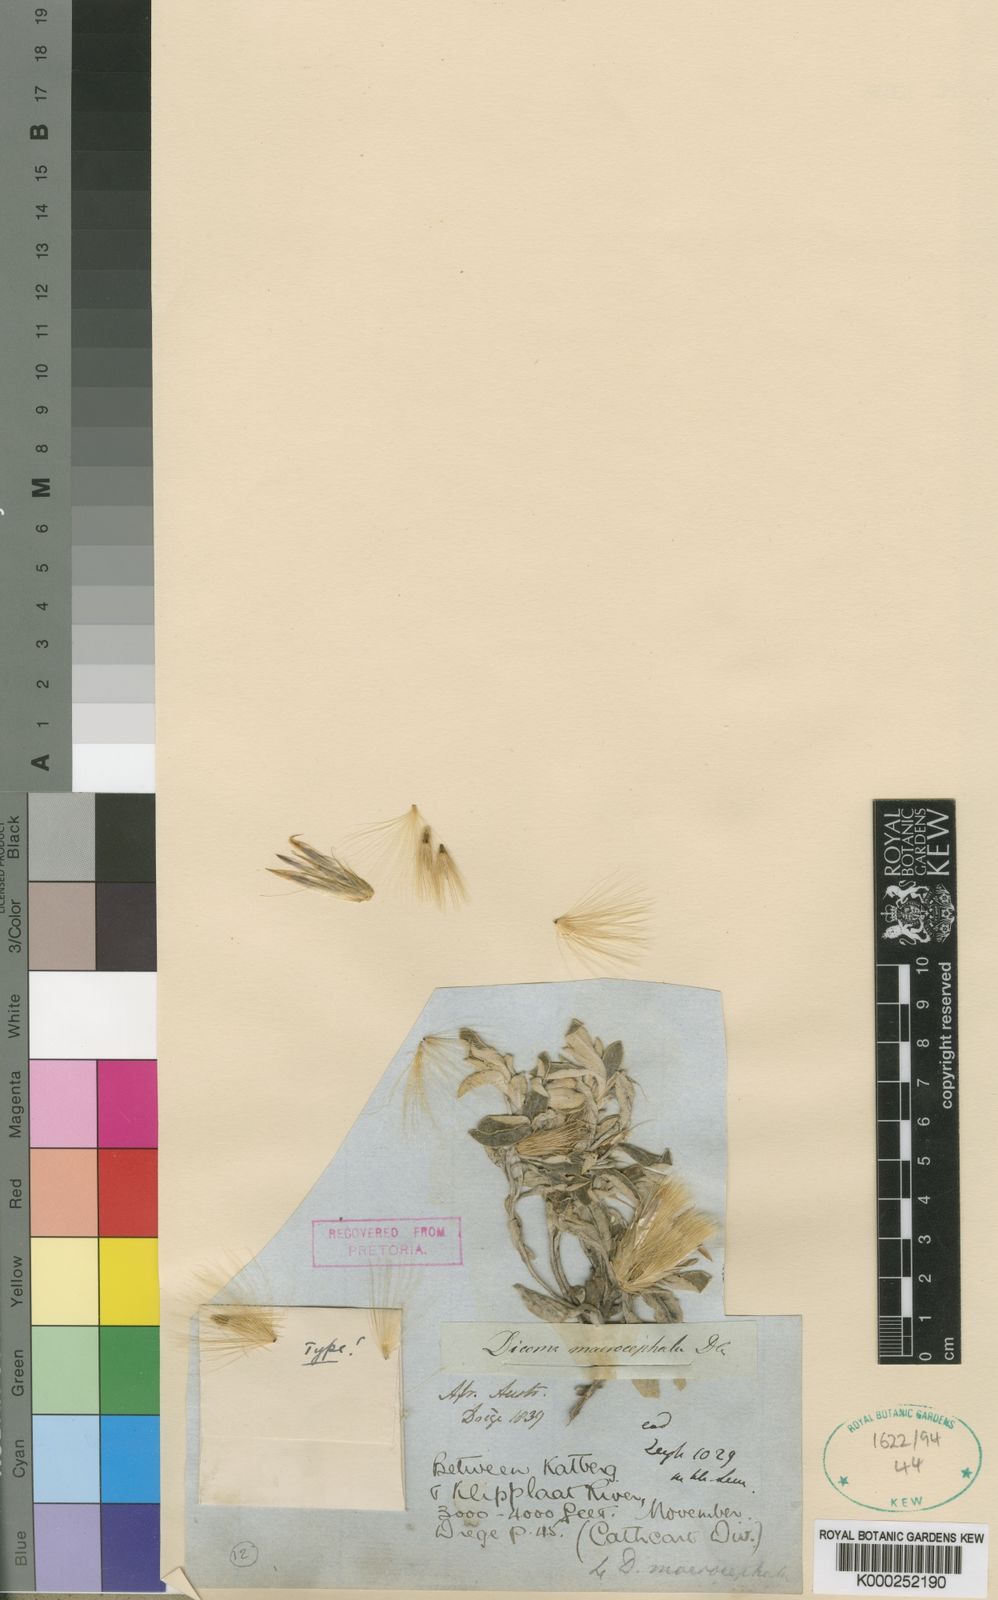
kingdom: Plantae
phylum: Tracheophyta
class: Magnoliopsida
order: Asterales
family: Asteraceae
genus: Dicoma
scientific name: Dicoma macrocephala
